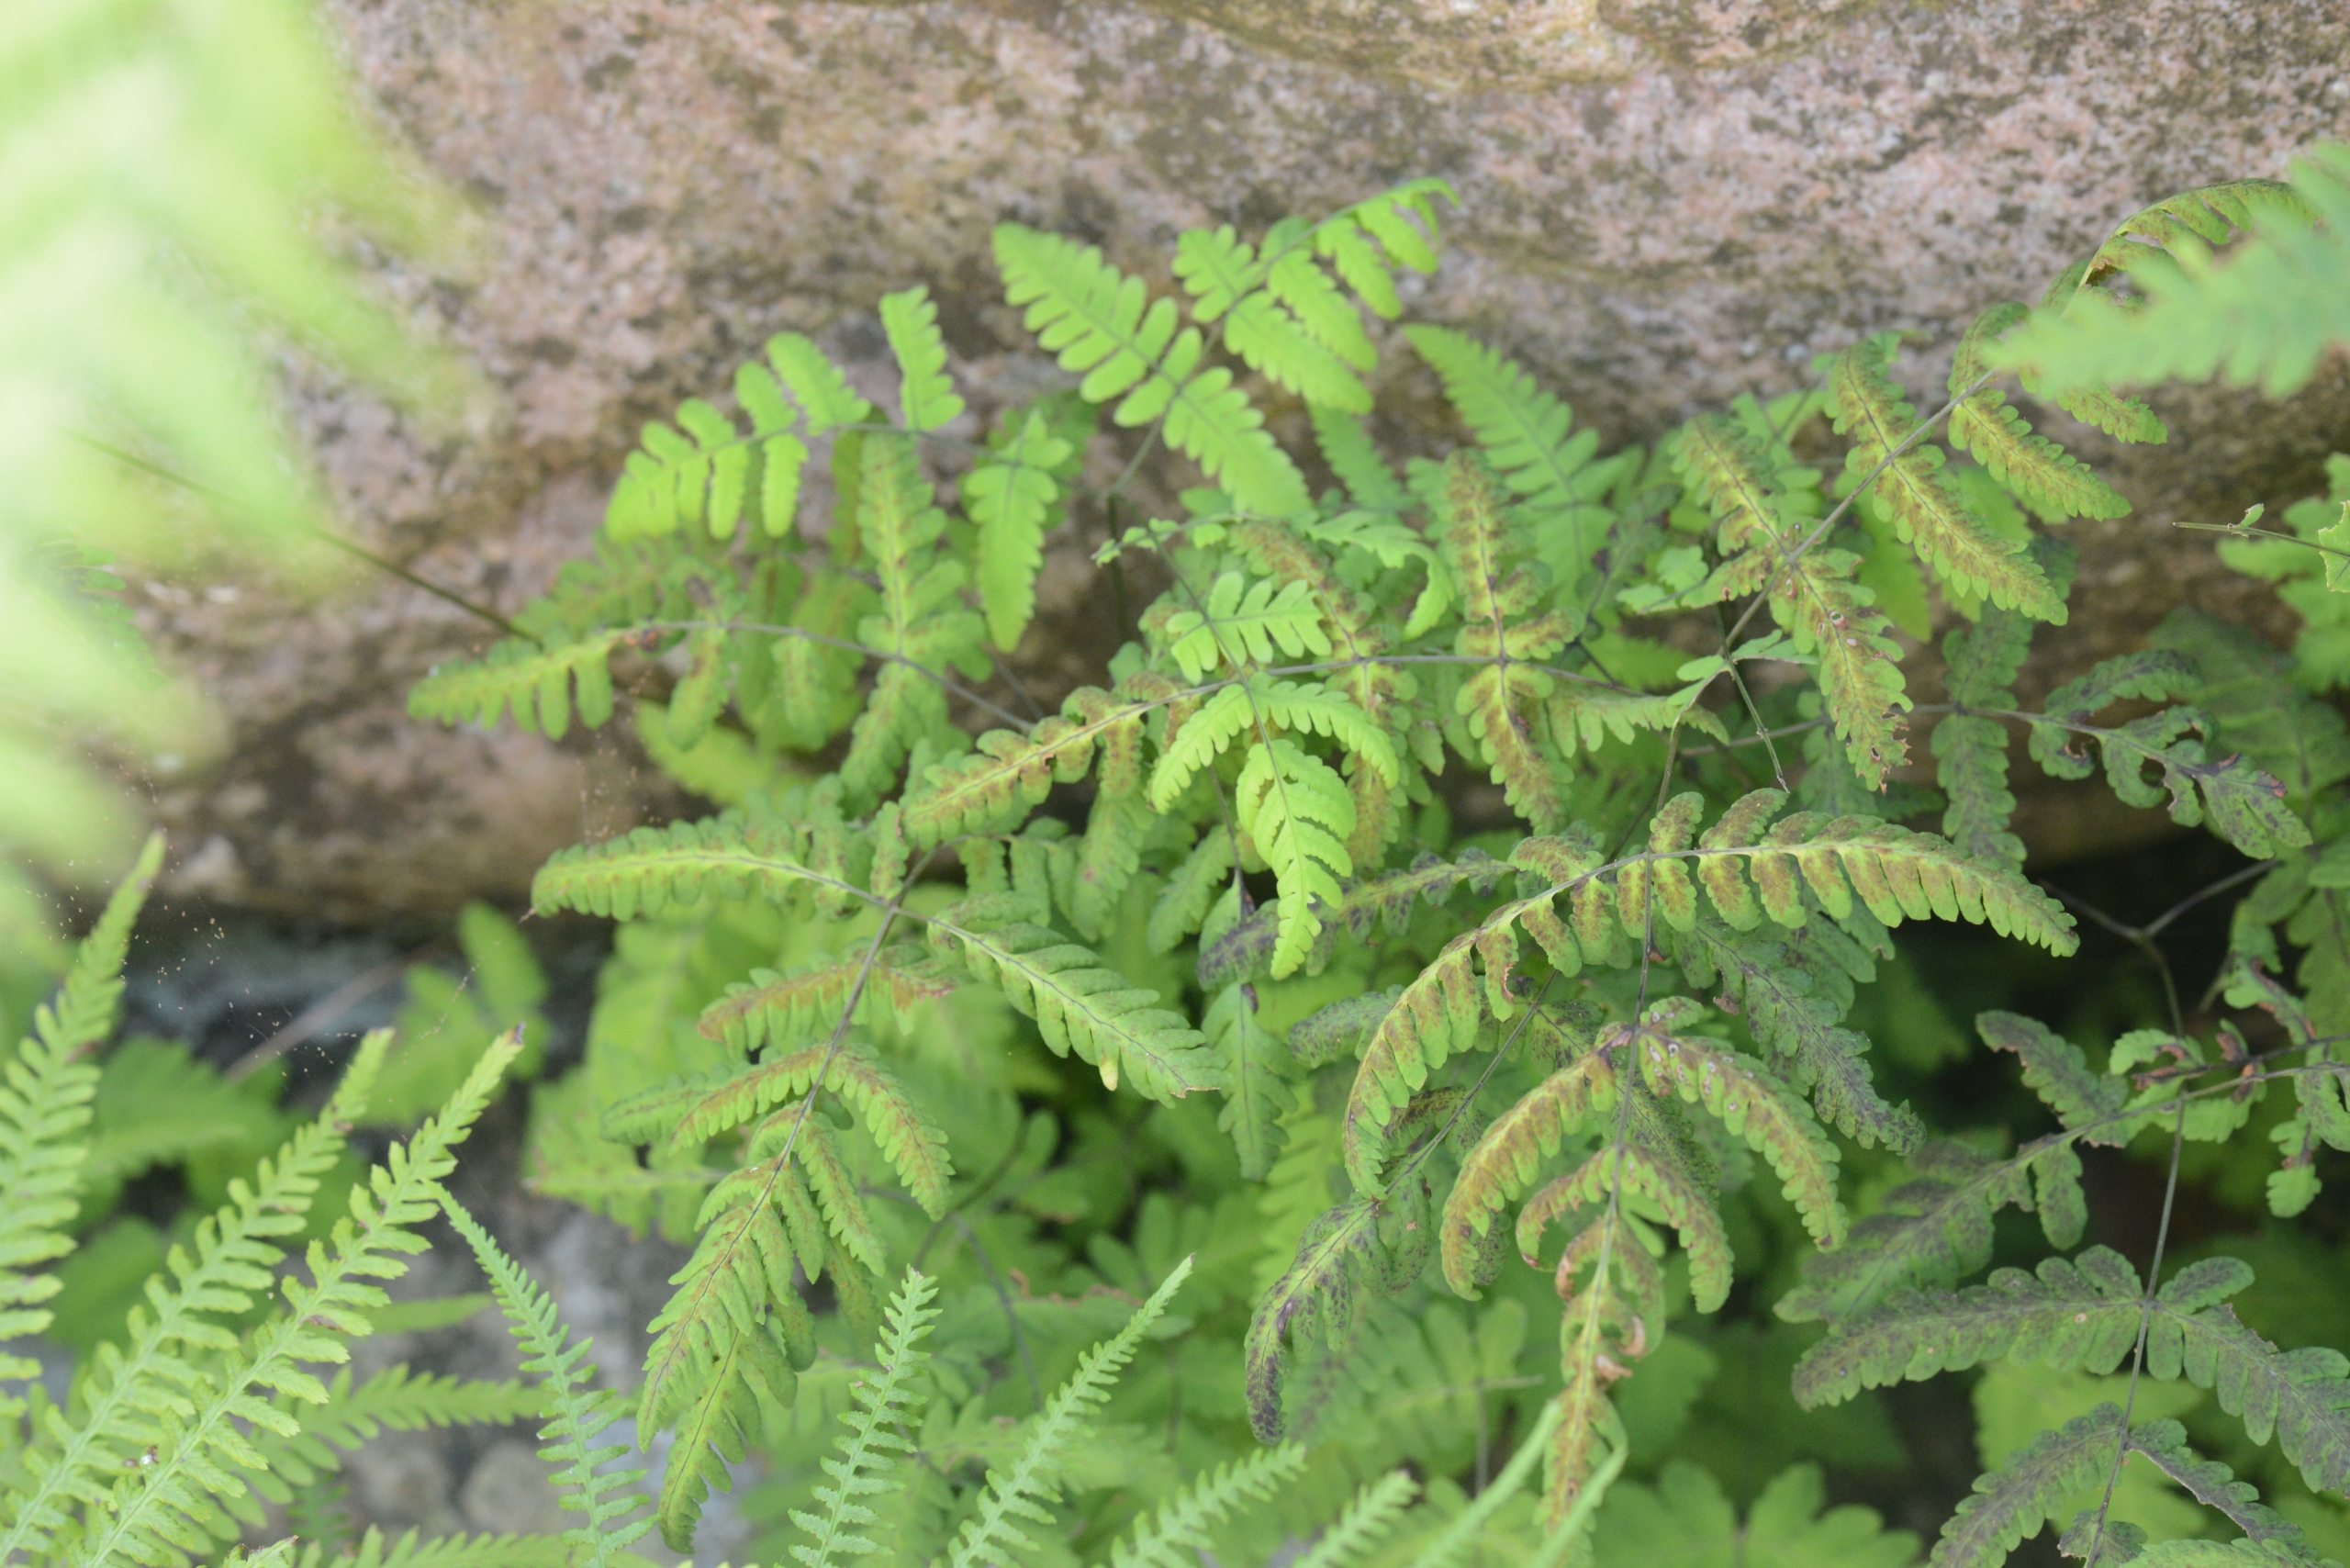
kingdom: Plantae
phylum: Tracheophyta
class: Polypodiopsida
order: Polypodiales
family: Cystopteridaceae
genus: Gymnocarpium
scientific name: Gymnocarpium dryopteris
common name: Tredelt egebregne
